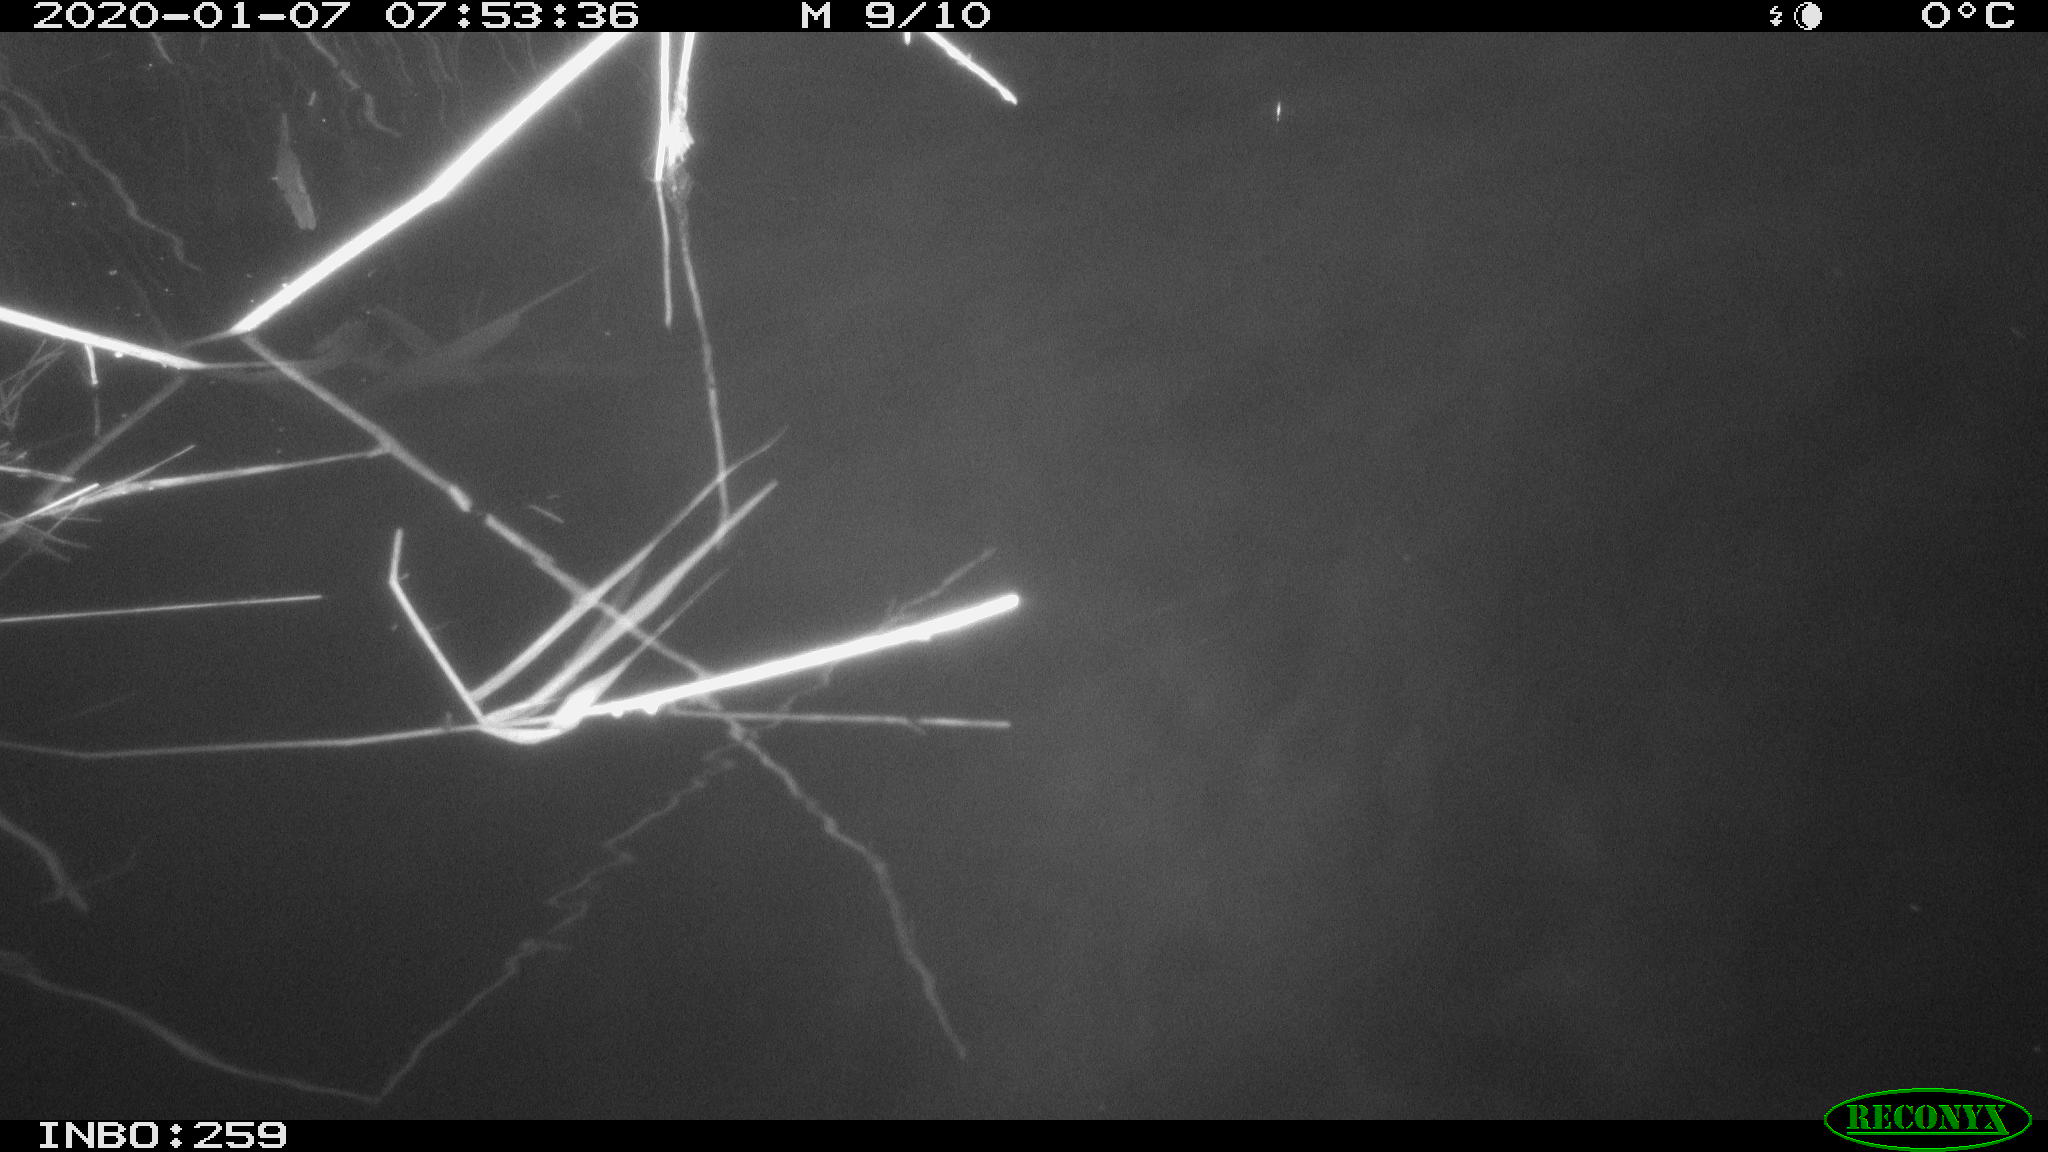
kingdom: Animalia
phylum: Chordata
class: Mammalia
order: Rodentia
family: Cricetidae
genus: Ondatra
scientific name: Ondatra zibethicus
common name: Muskrat
